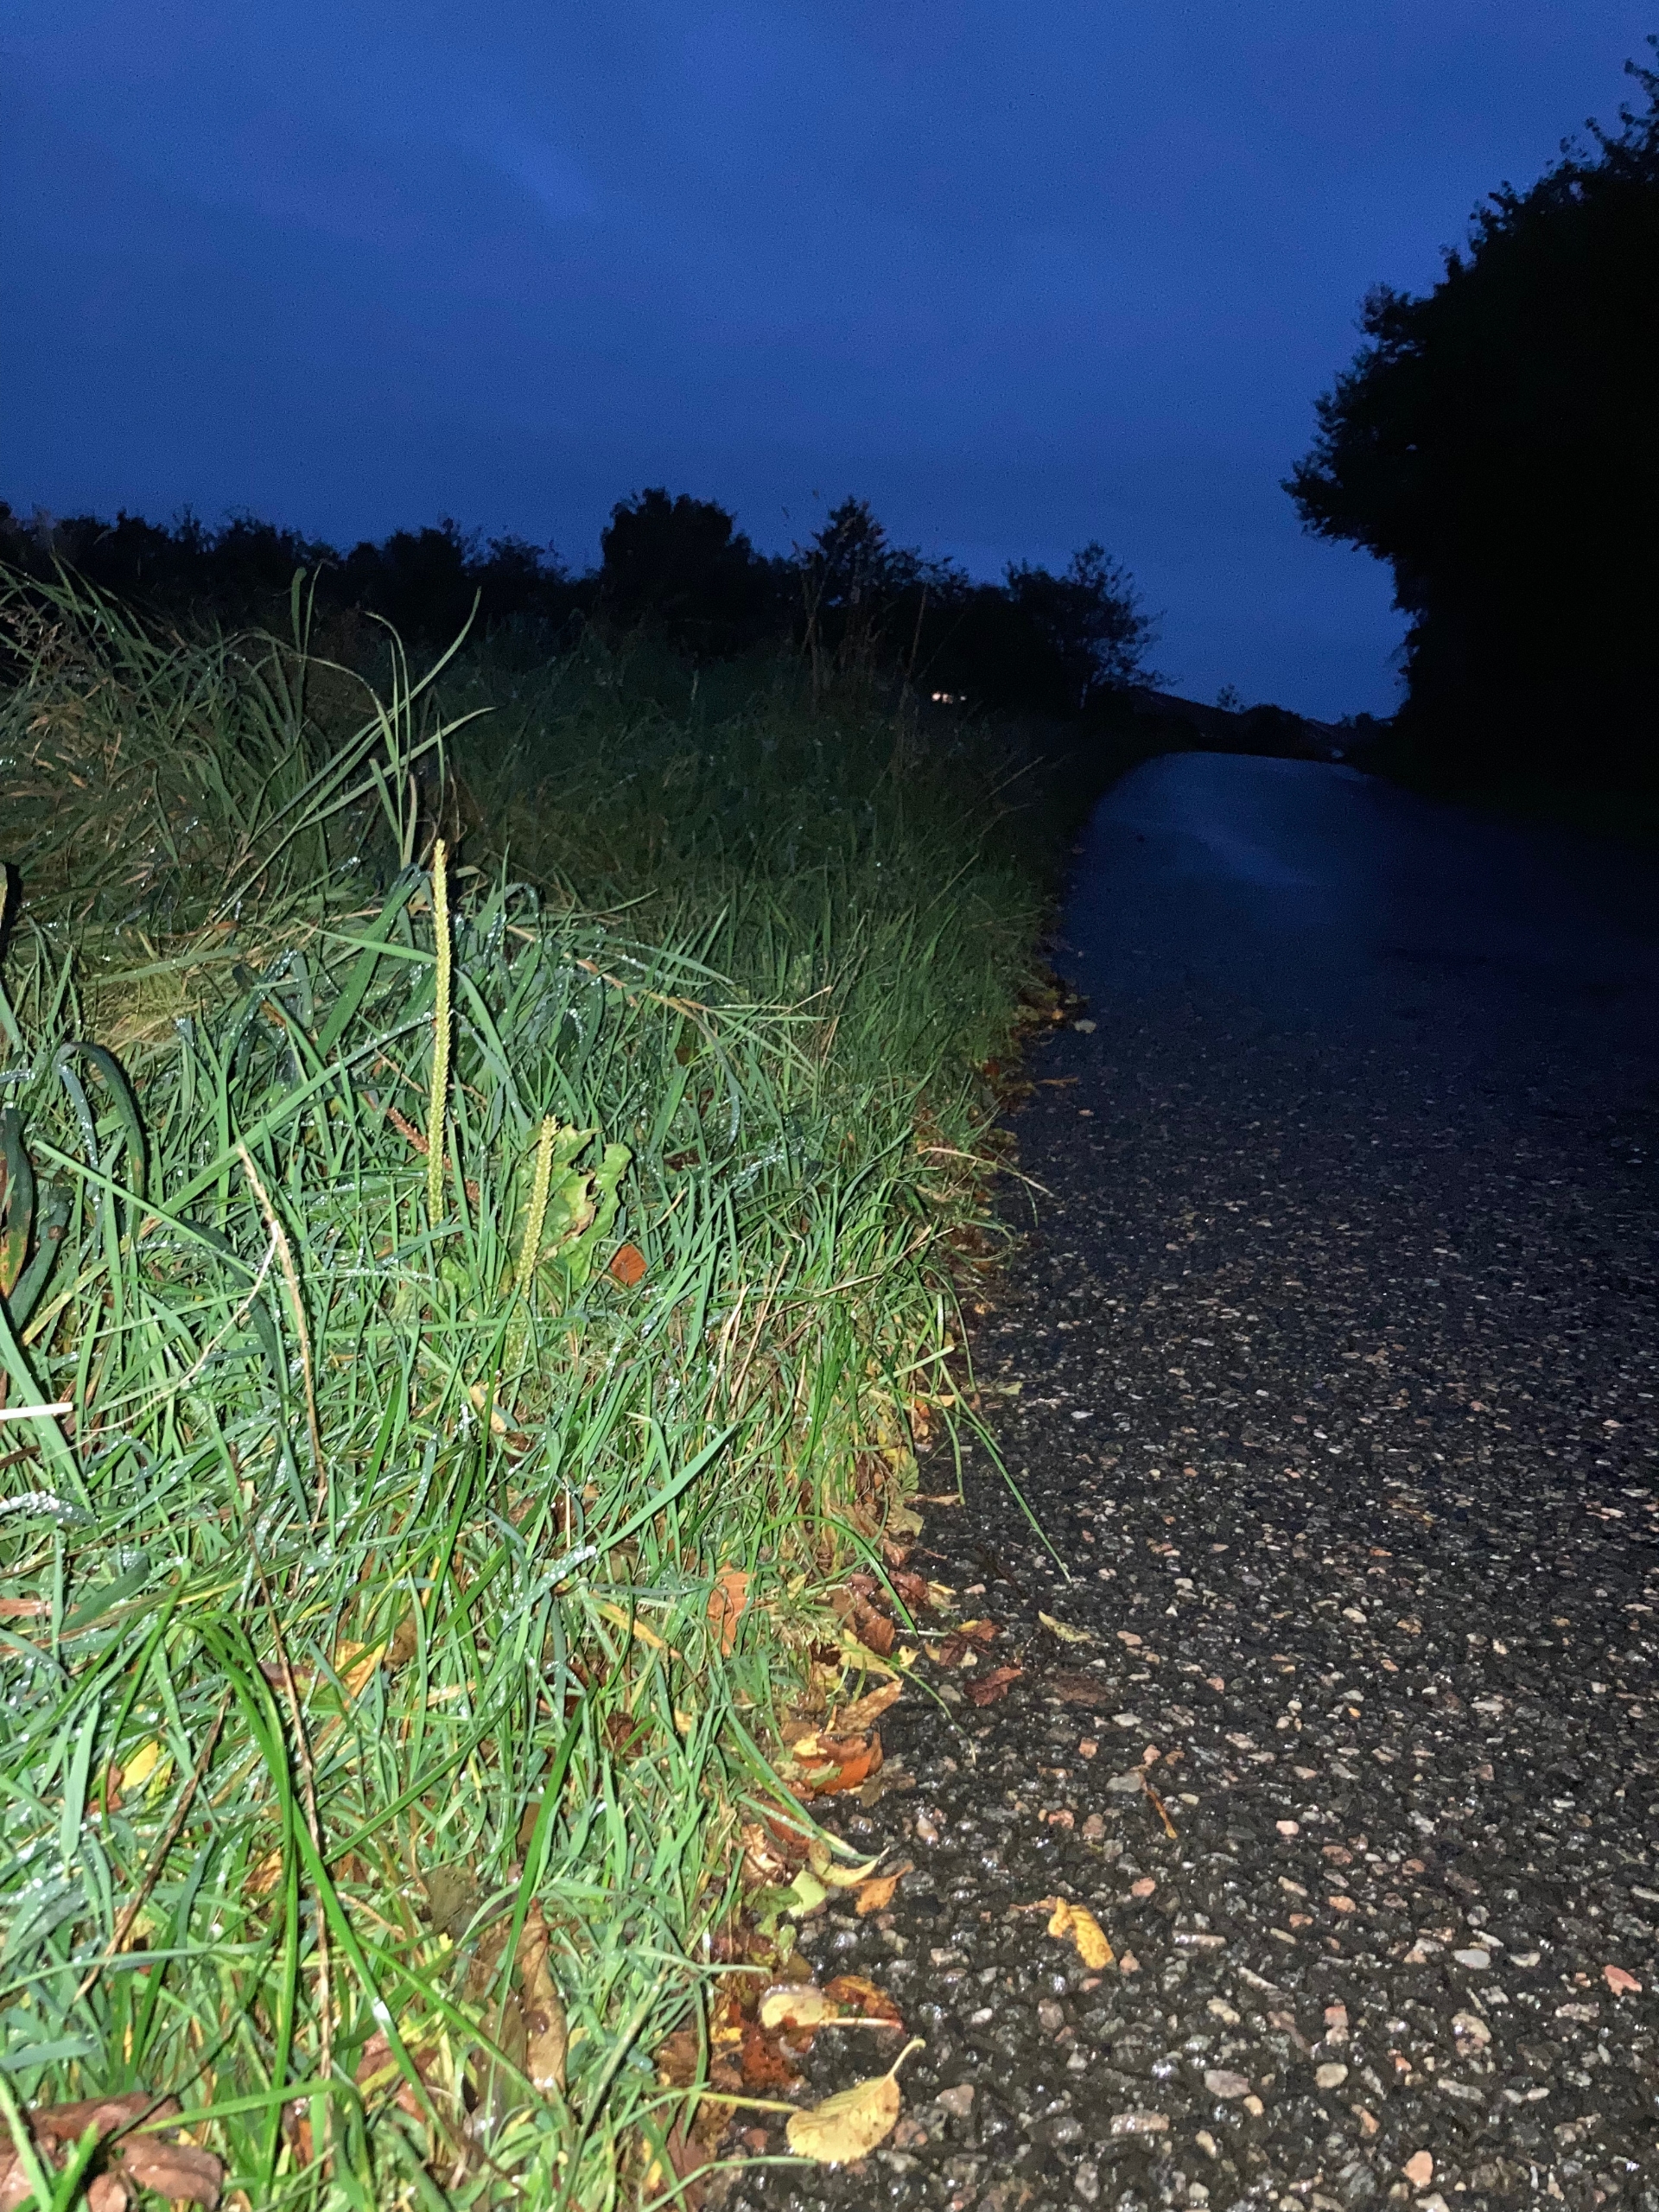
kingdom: Animalia
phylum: Chordata
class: Amphibia
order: Caudata
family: Salamandridae
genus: Triturus
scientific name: Triturus cristatus
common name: Stor vandsalamander
